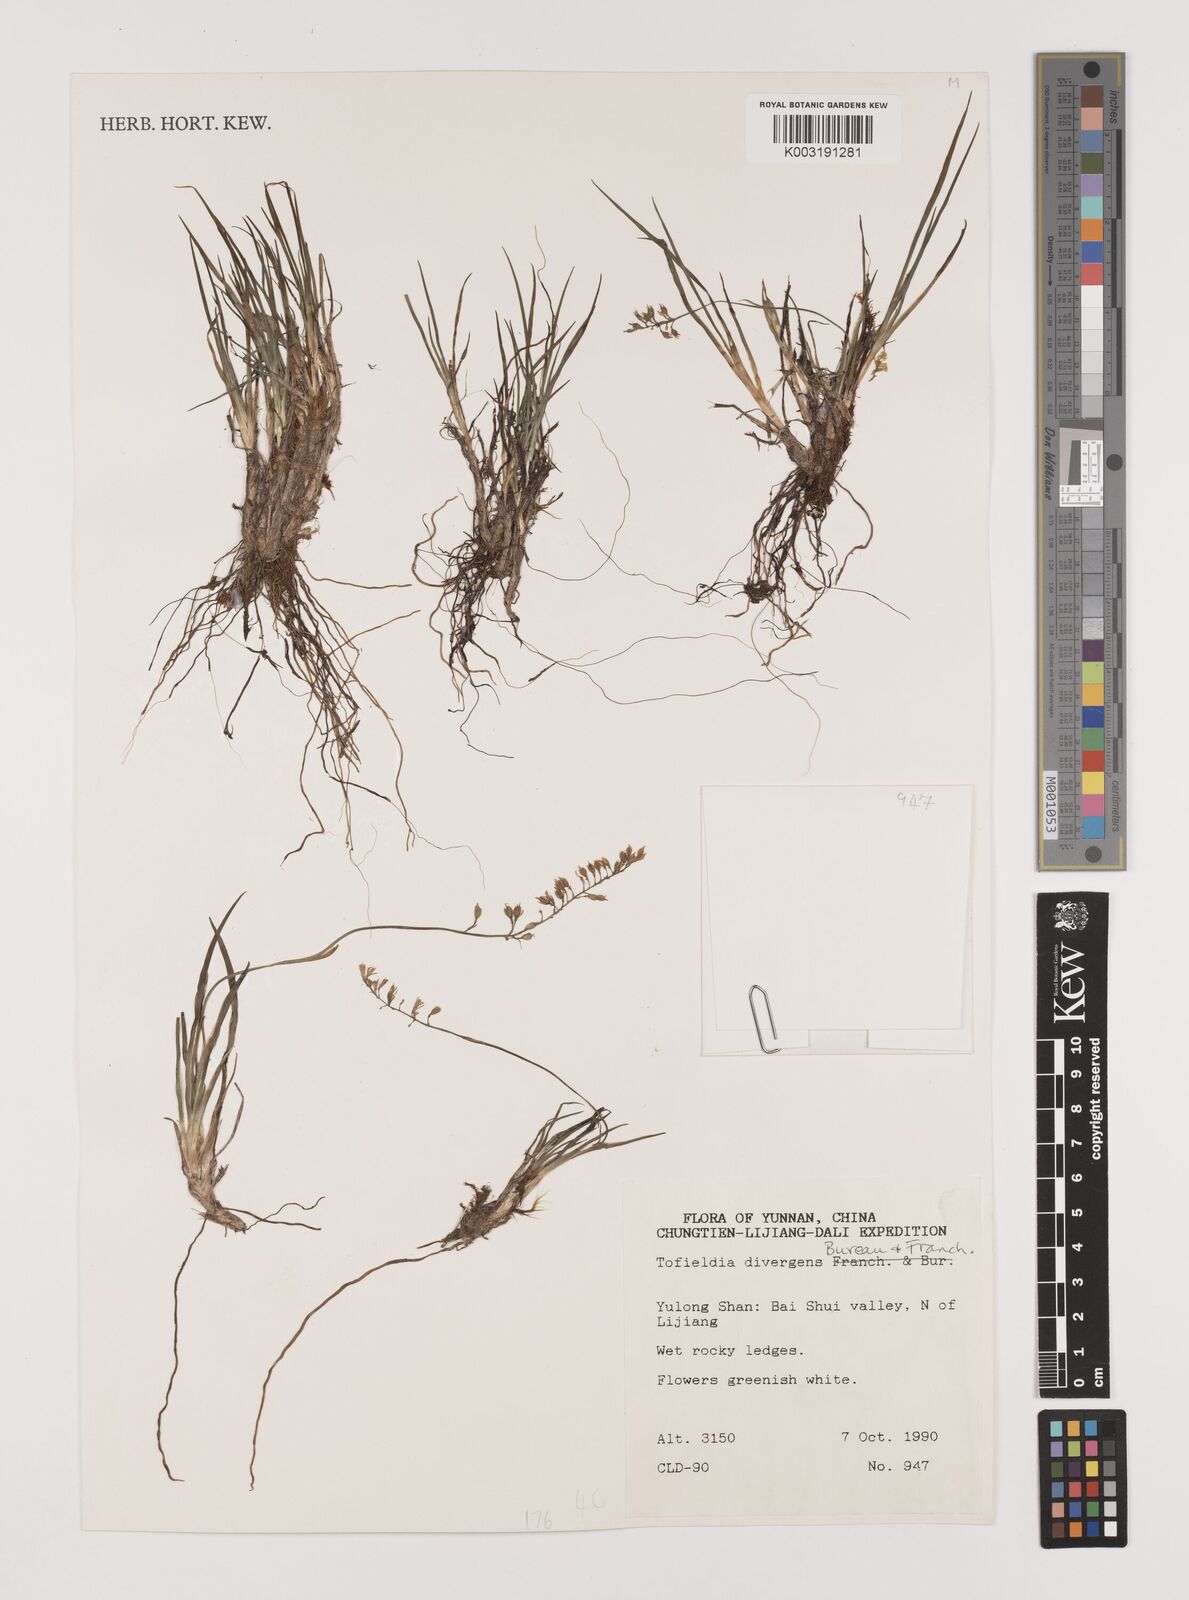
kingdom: Plantae
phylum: Tracheophyta
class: Liliopsida
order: Alismatales
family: Tofieldiaceae
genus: Tofieldia
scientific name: Tofieldia divergens
